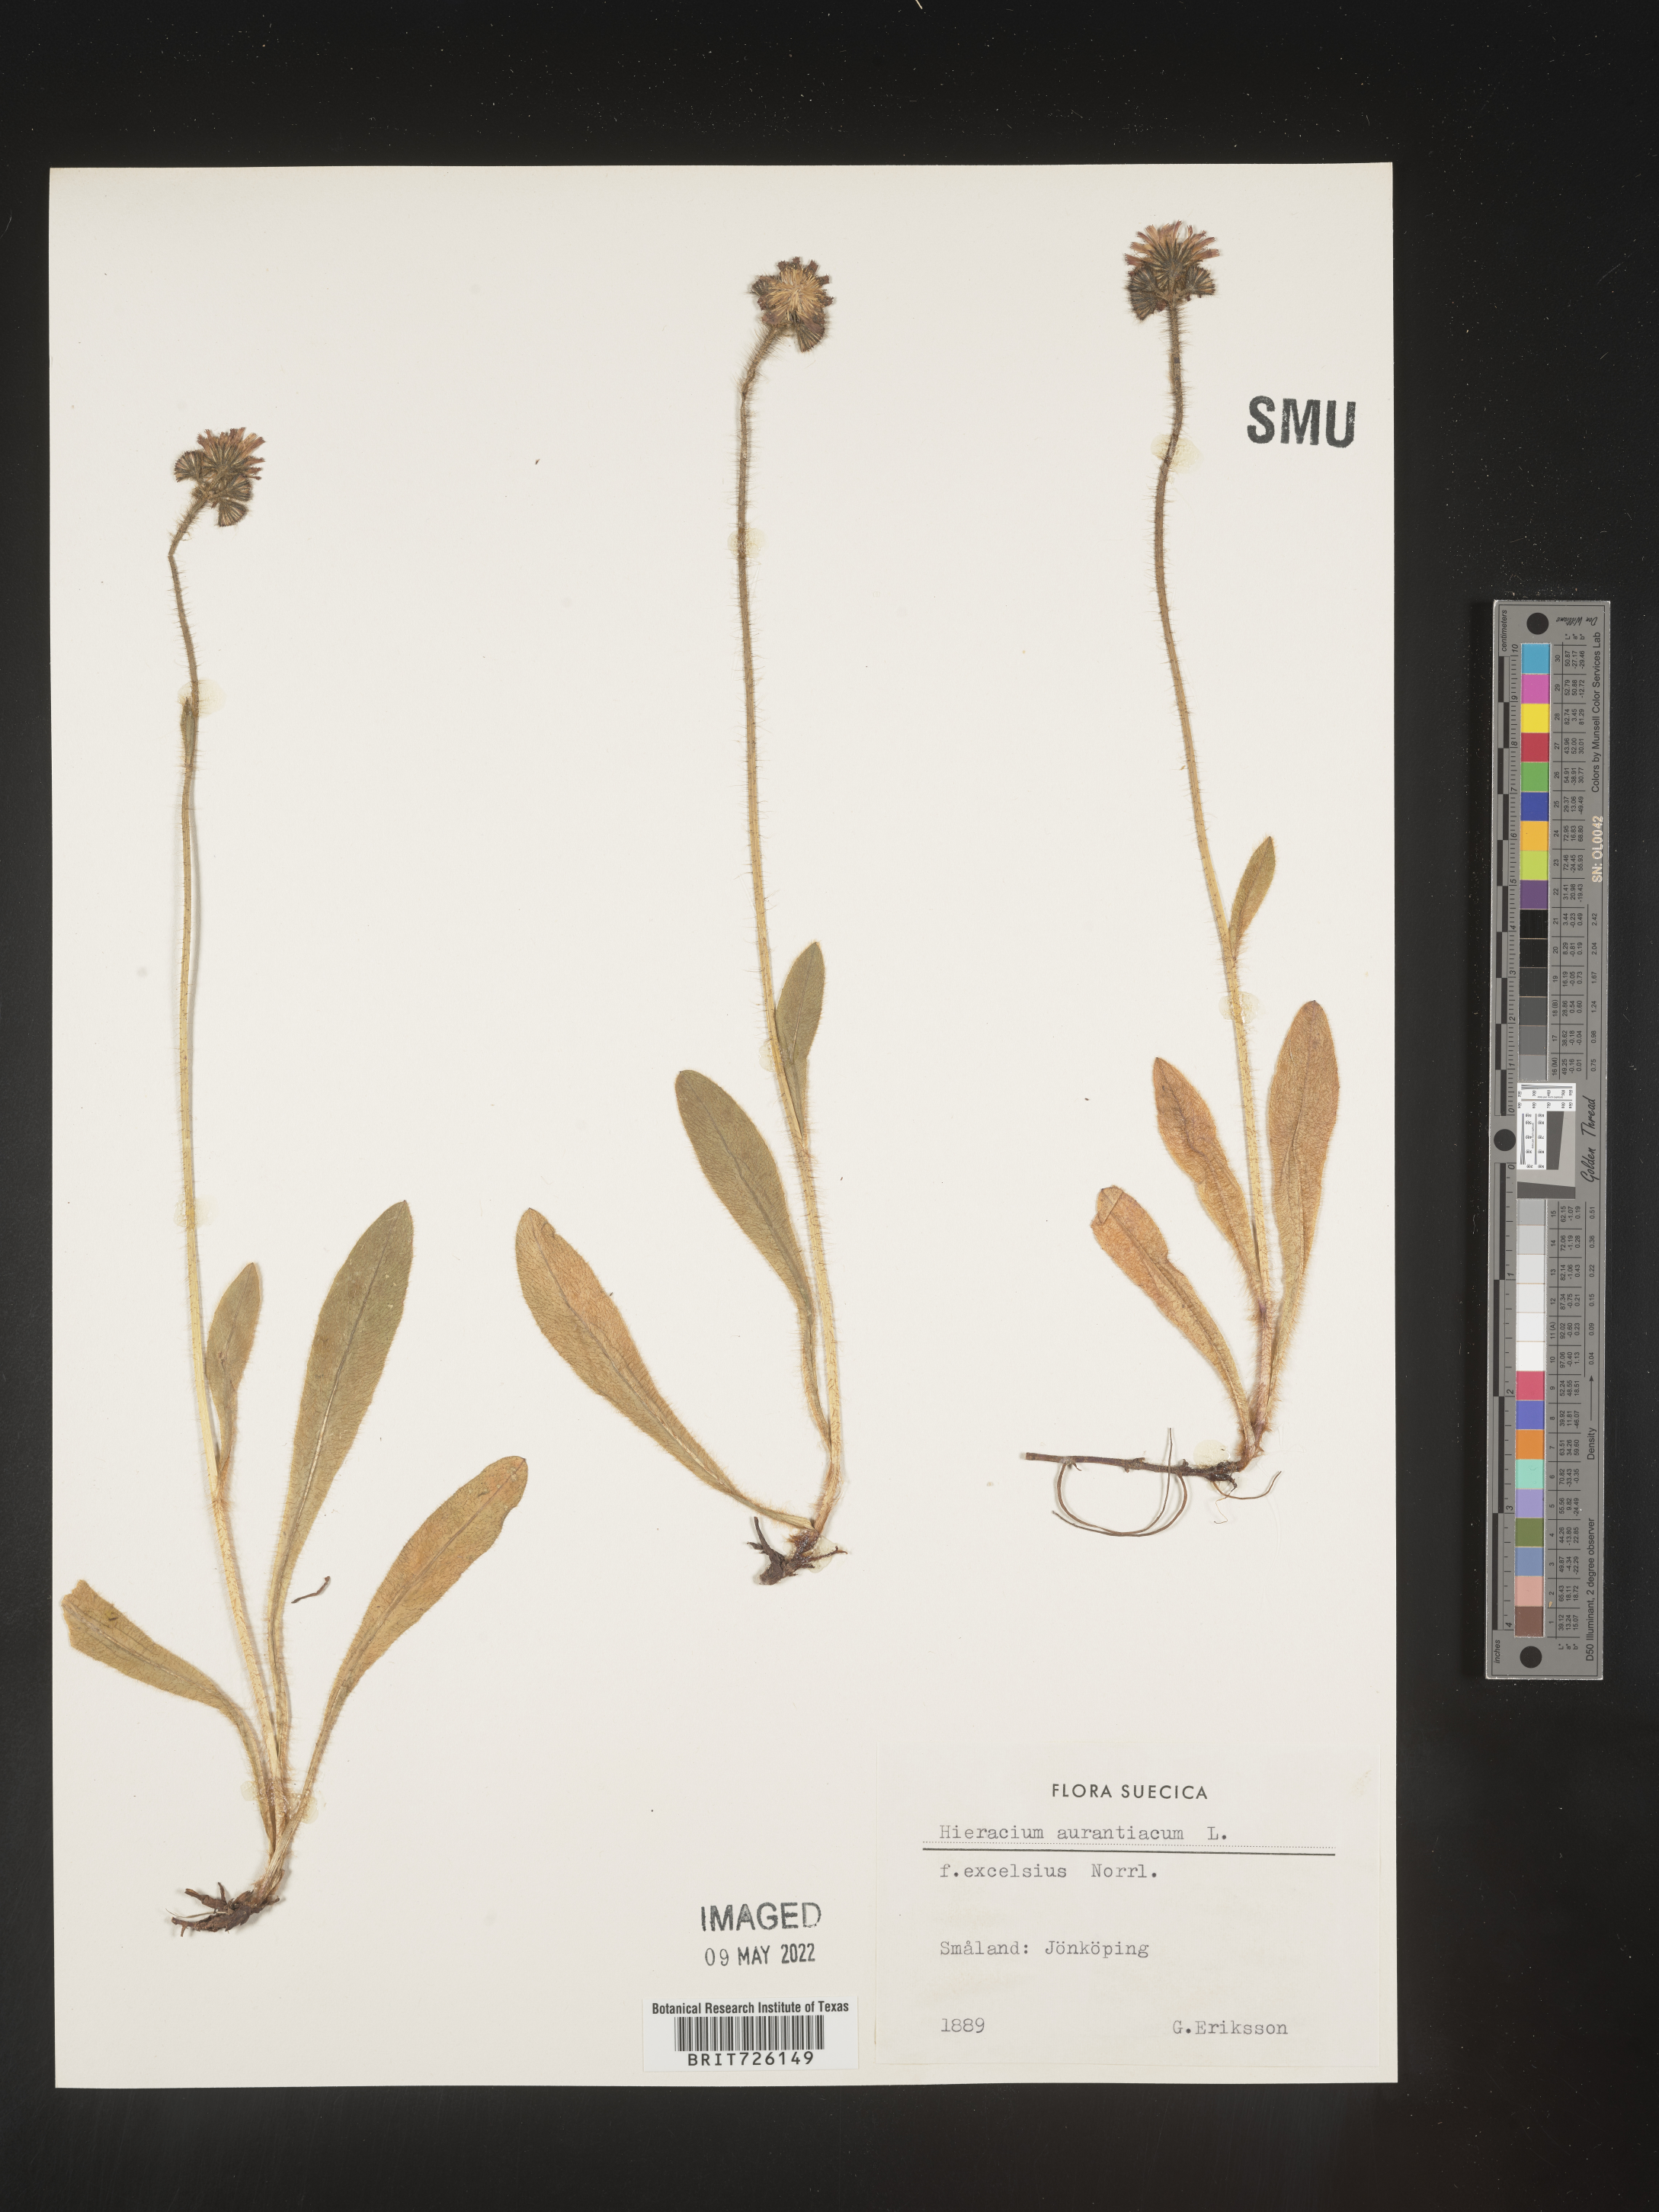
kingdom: Plantae
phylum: Tracheophyta
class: Magnoliopsida
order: Asterales
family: Asteraceae
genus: Hieracium
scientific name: Hieracium
